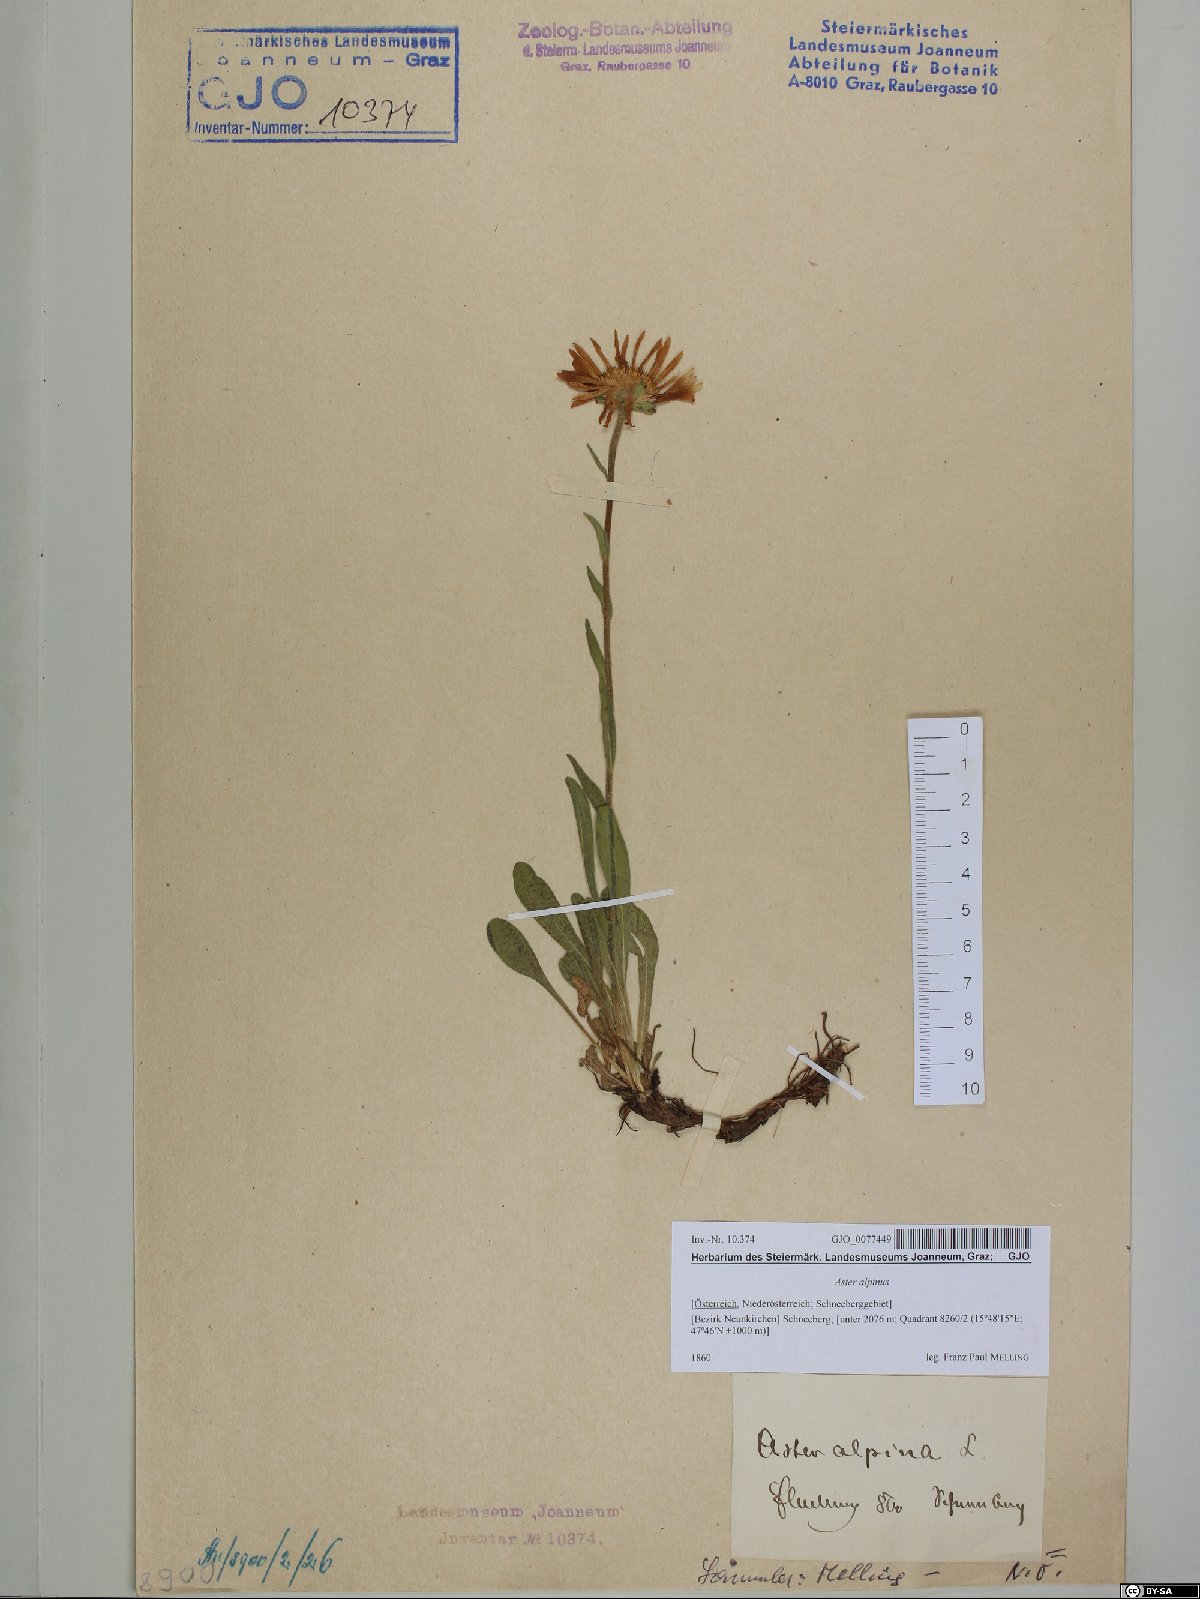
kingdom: Plantae
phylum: Tracheophyta
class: Magnoliopsida
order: Asterales
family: Asteraceae
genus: Aster
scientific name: Aster alpinus
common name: Alpine aster
